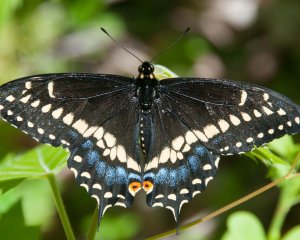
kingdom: Animalia
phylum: Arthropoda
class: Insecta
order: Lepidoptera
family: Papilionidae
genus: Papilio
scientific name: Papilio polyxenes
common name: Black Swallowtail
